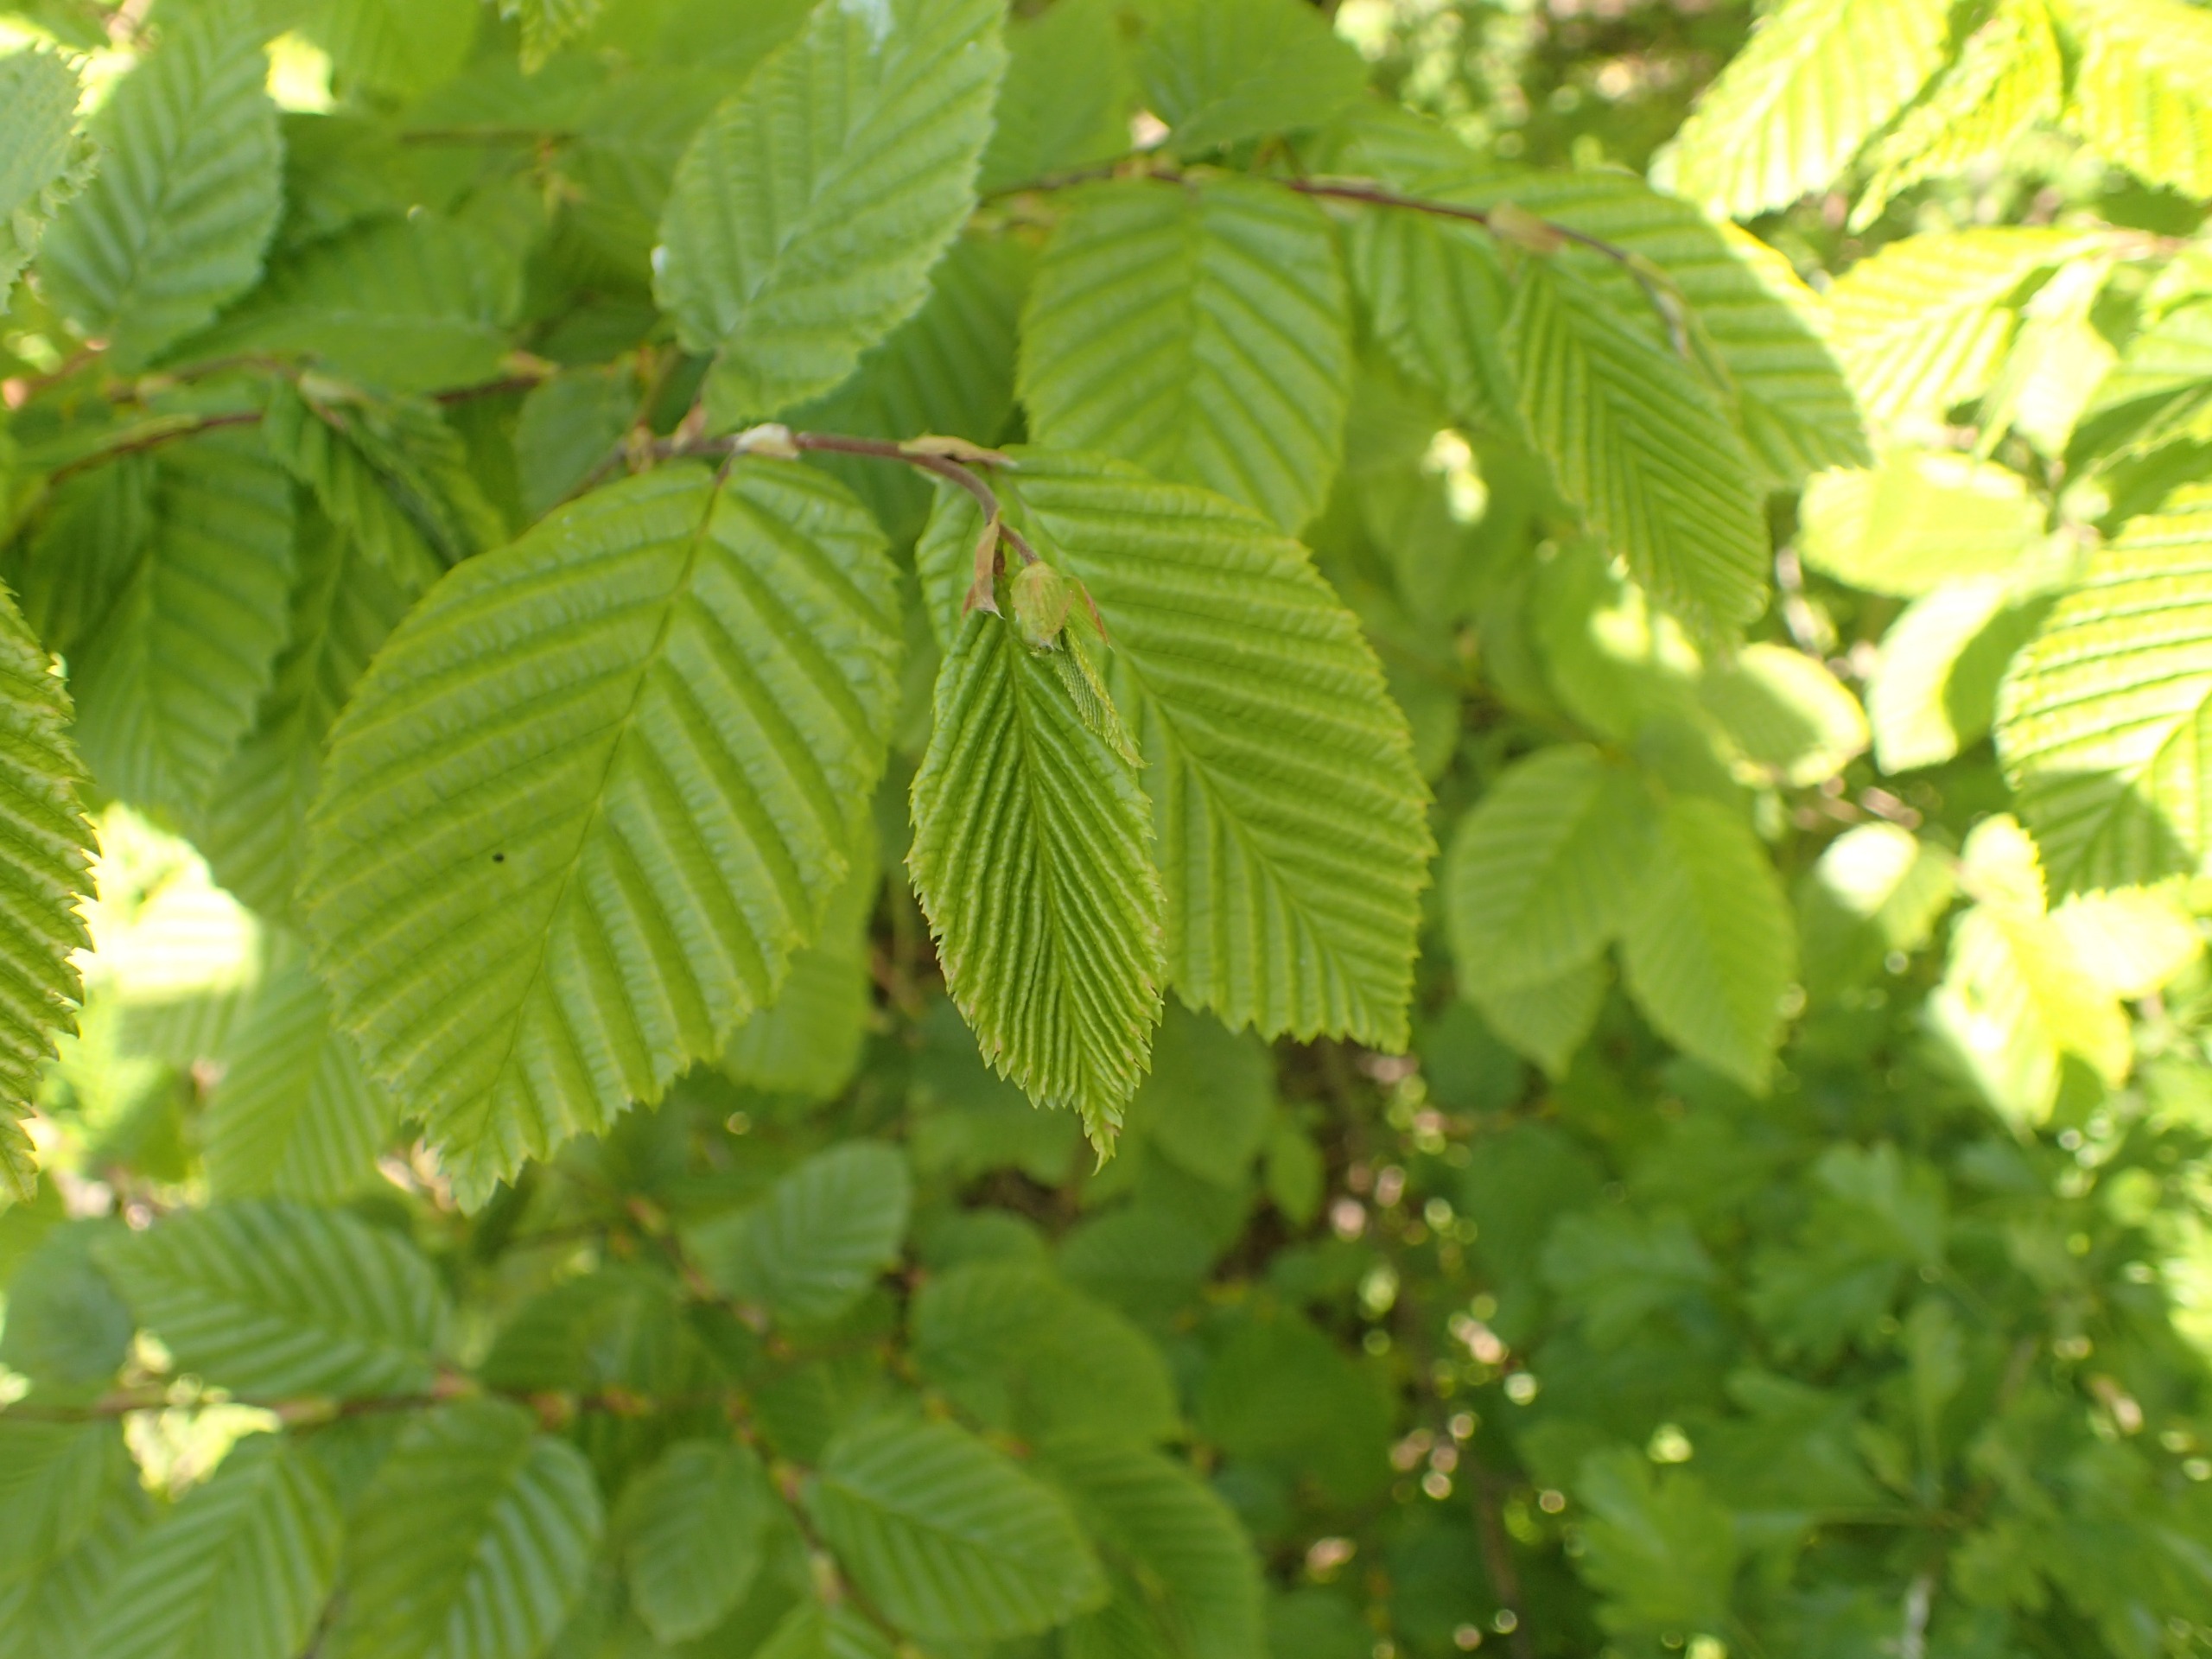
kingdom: Plantae
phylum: Tracheophyta
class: Magnoliopsida
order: Fagales
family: Betulaceae
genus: Carpinus
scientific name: Carpinus betulus
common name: Avnbøg
